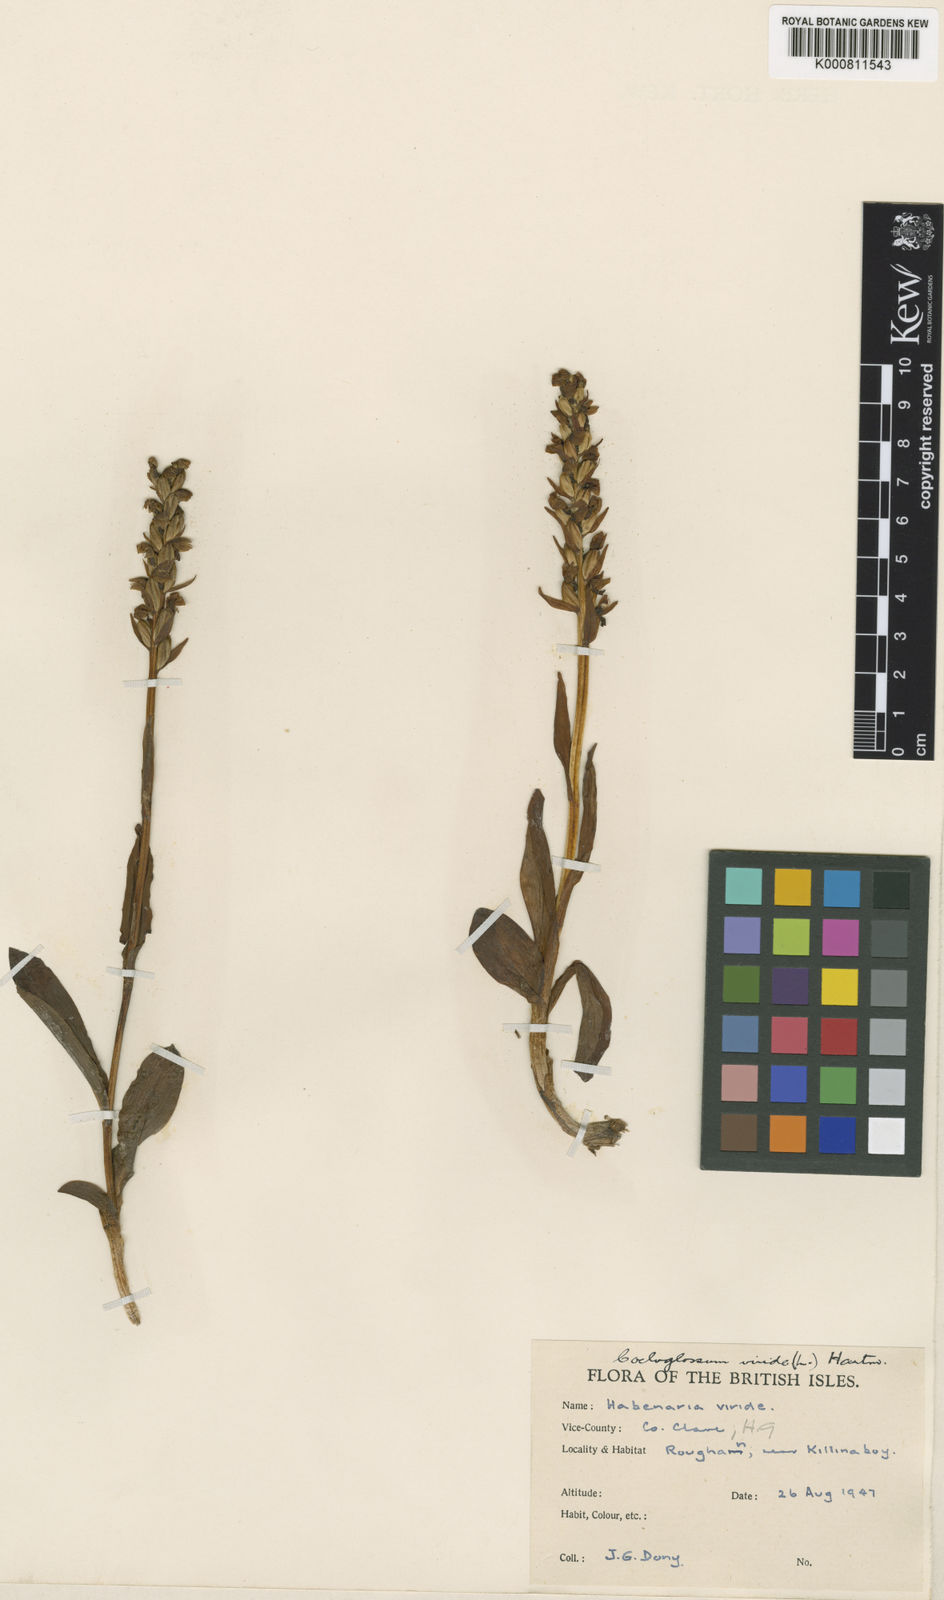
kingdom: Plantae
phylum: Tracheophyta
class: Liliopsida
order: Asparagales
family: Orchidaceae
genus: Dactylorhiza
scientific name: Dactylorhiza viridis
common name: Longbract frog orchid
